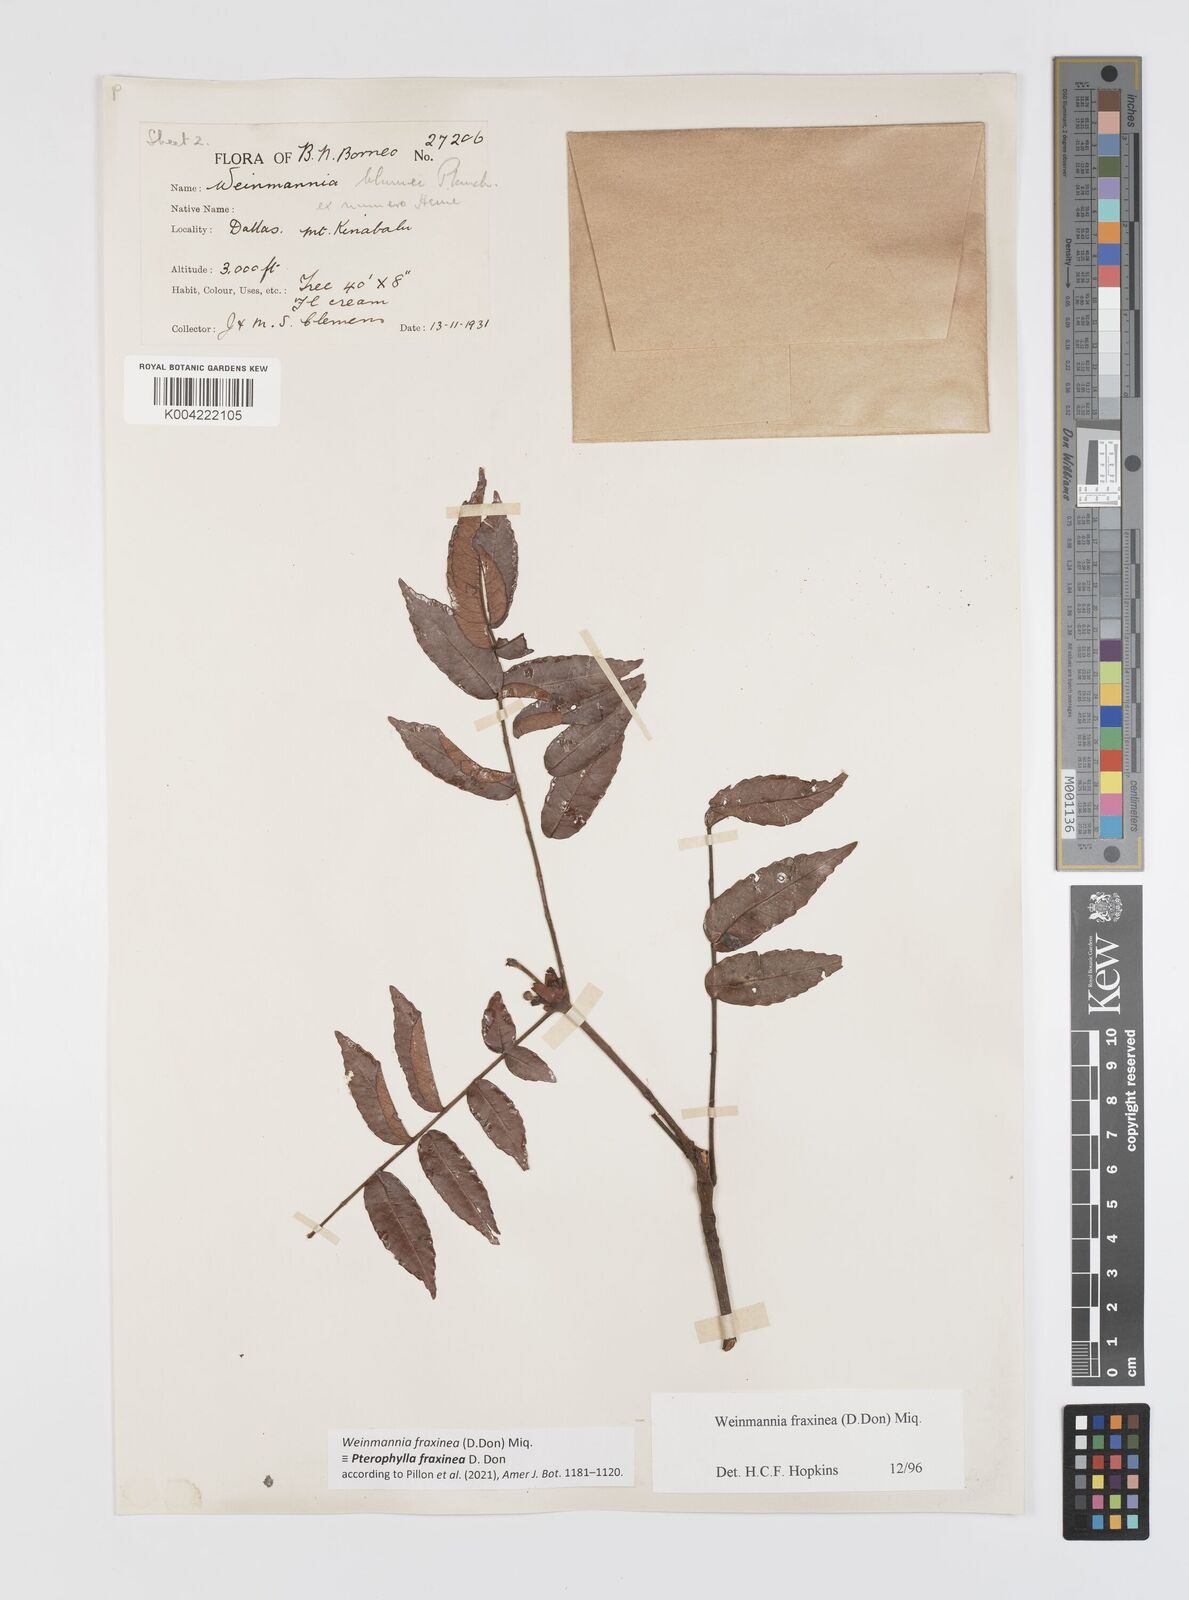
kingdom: Plantae
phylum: Tracheophyta
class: Magnoliopsida
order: Oxalidales
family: Cunoniaceae
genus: Pterophylla
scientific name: Pterophylla fraxinea
